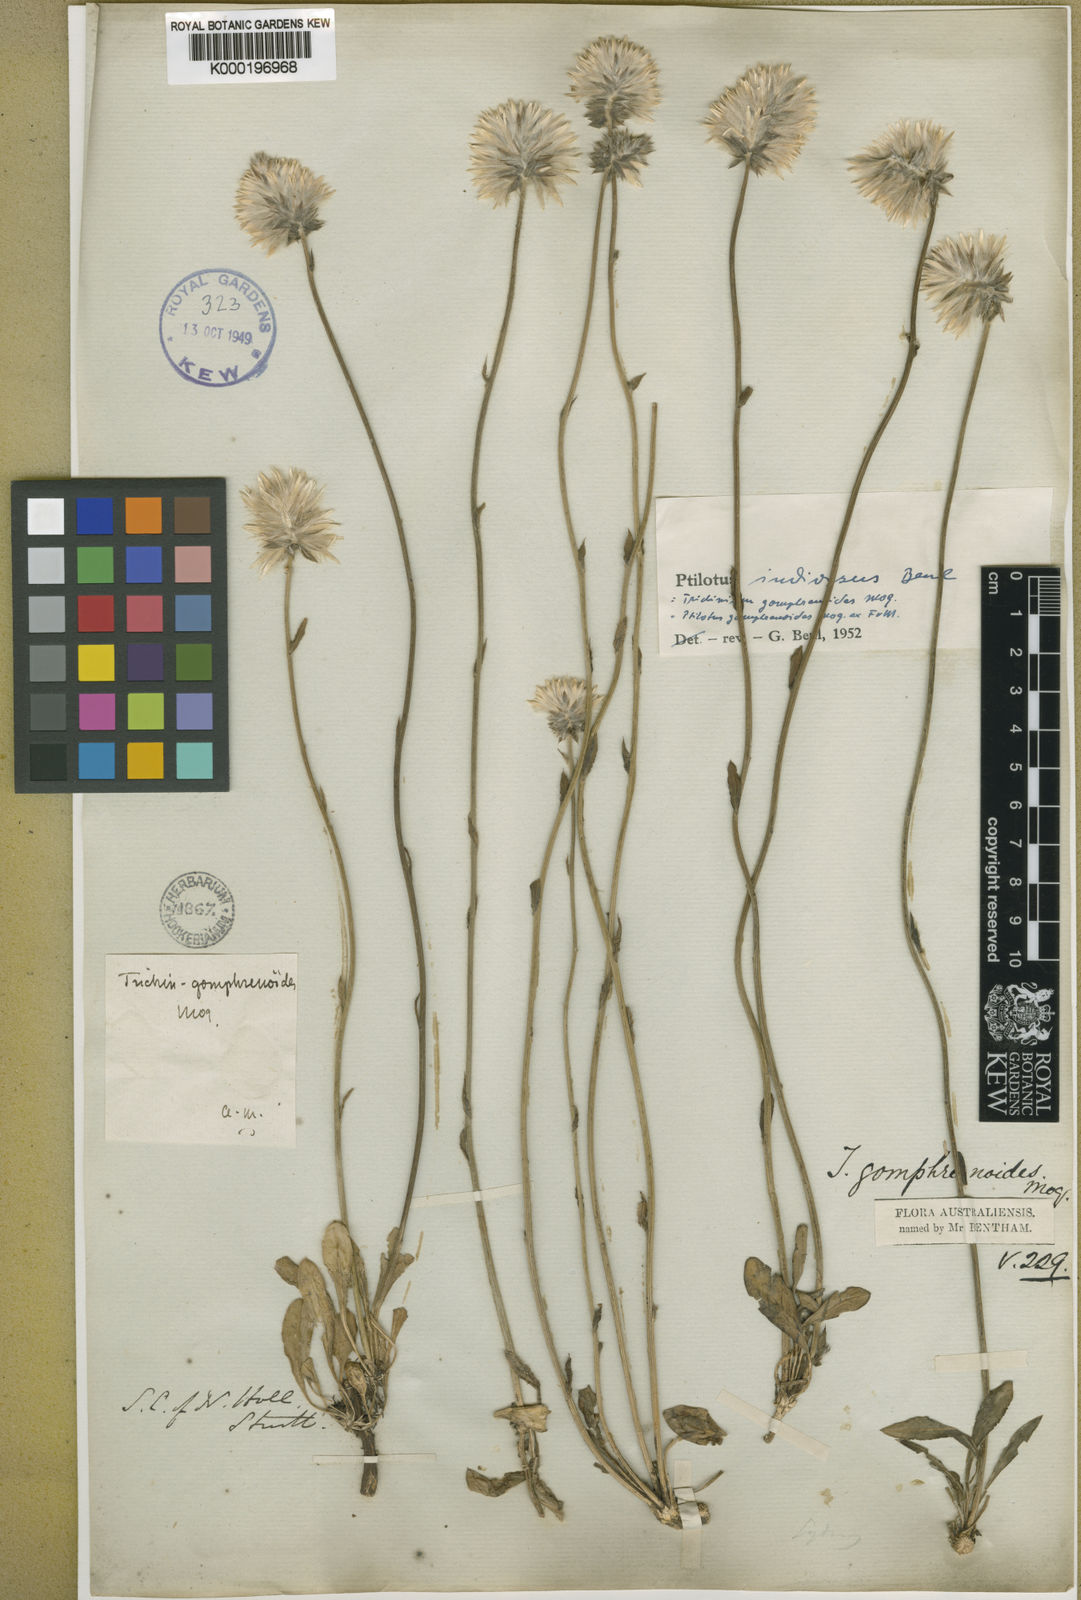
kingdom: Plantae
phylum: Tracheophyta
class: Magnoliopsida
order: Caryophyllales
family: Amaranthaceae
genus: Ptilotus
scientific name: Ptilotus indivisus
